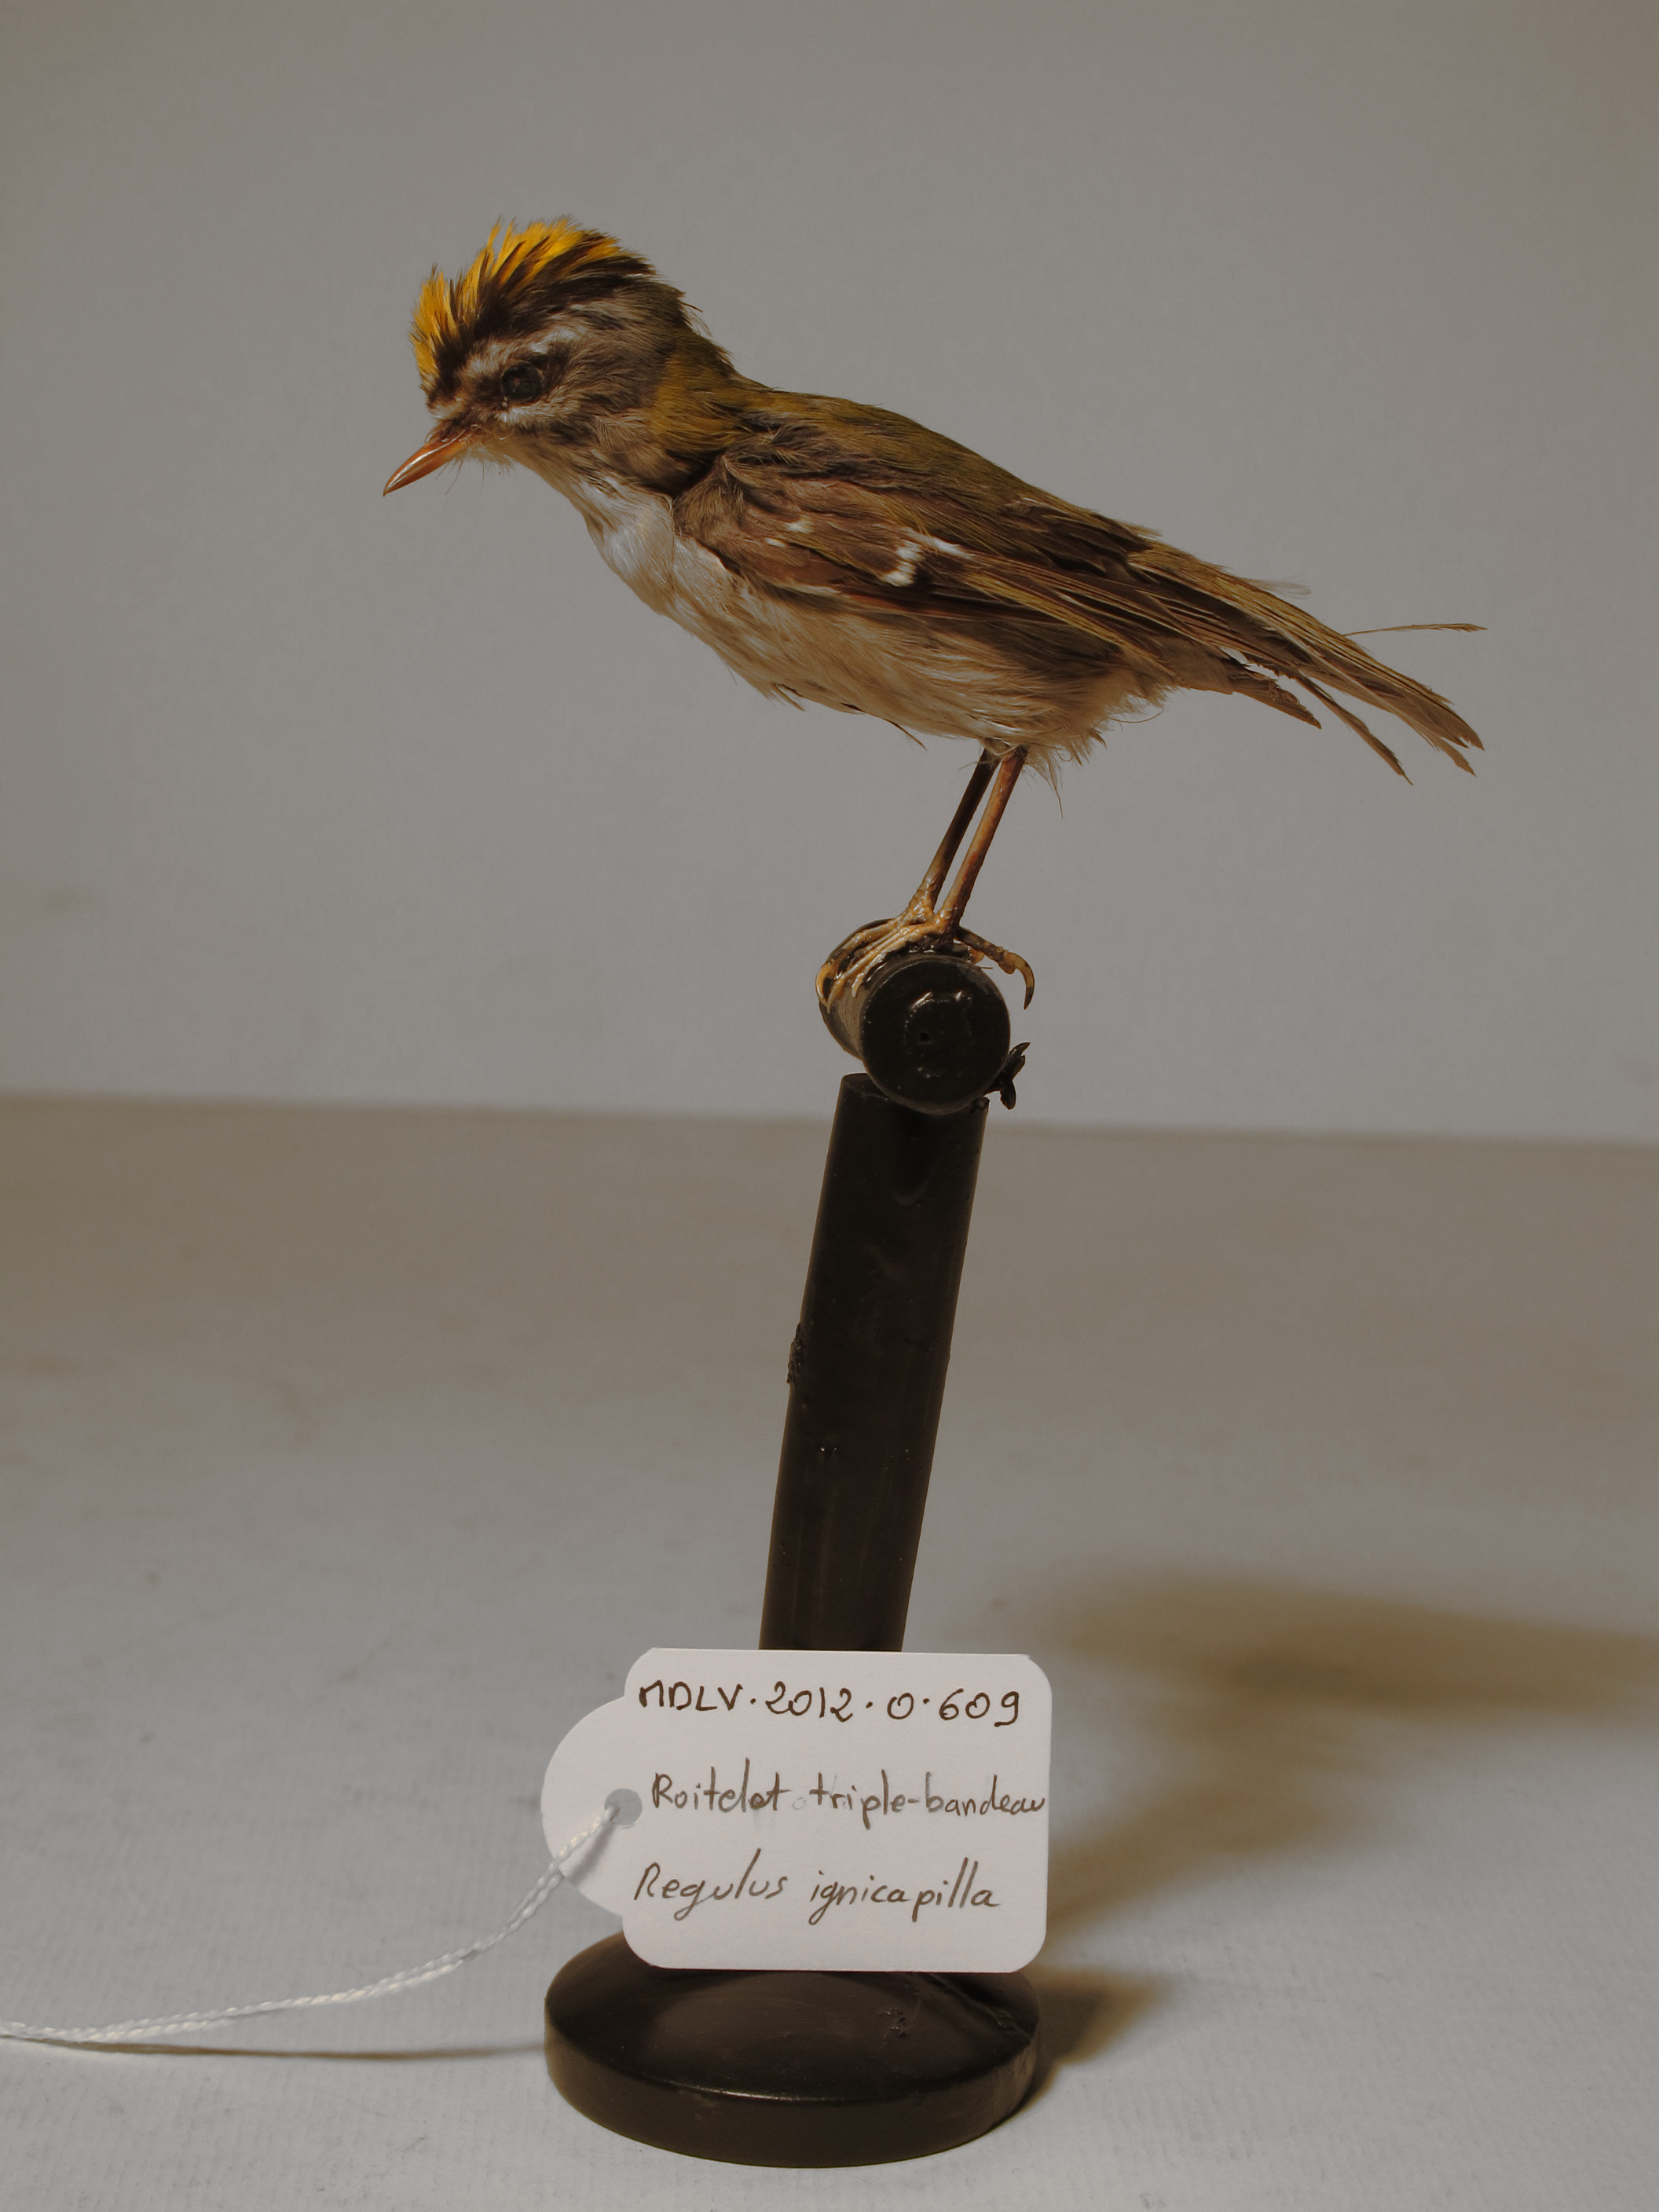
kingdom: Animalia
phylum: Chordata
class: Aves
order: Passeriformes
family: Regulidae
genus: Regulus
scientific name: Regulus ignicapilla
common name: Common Firecrest
